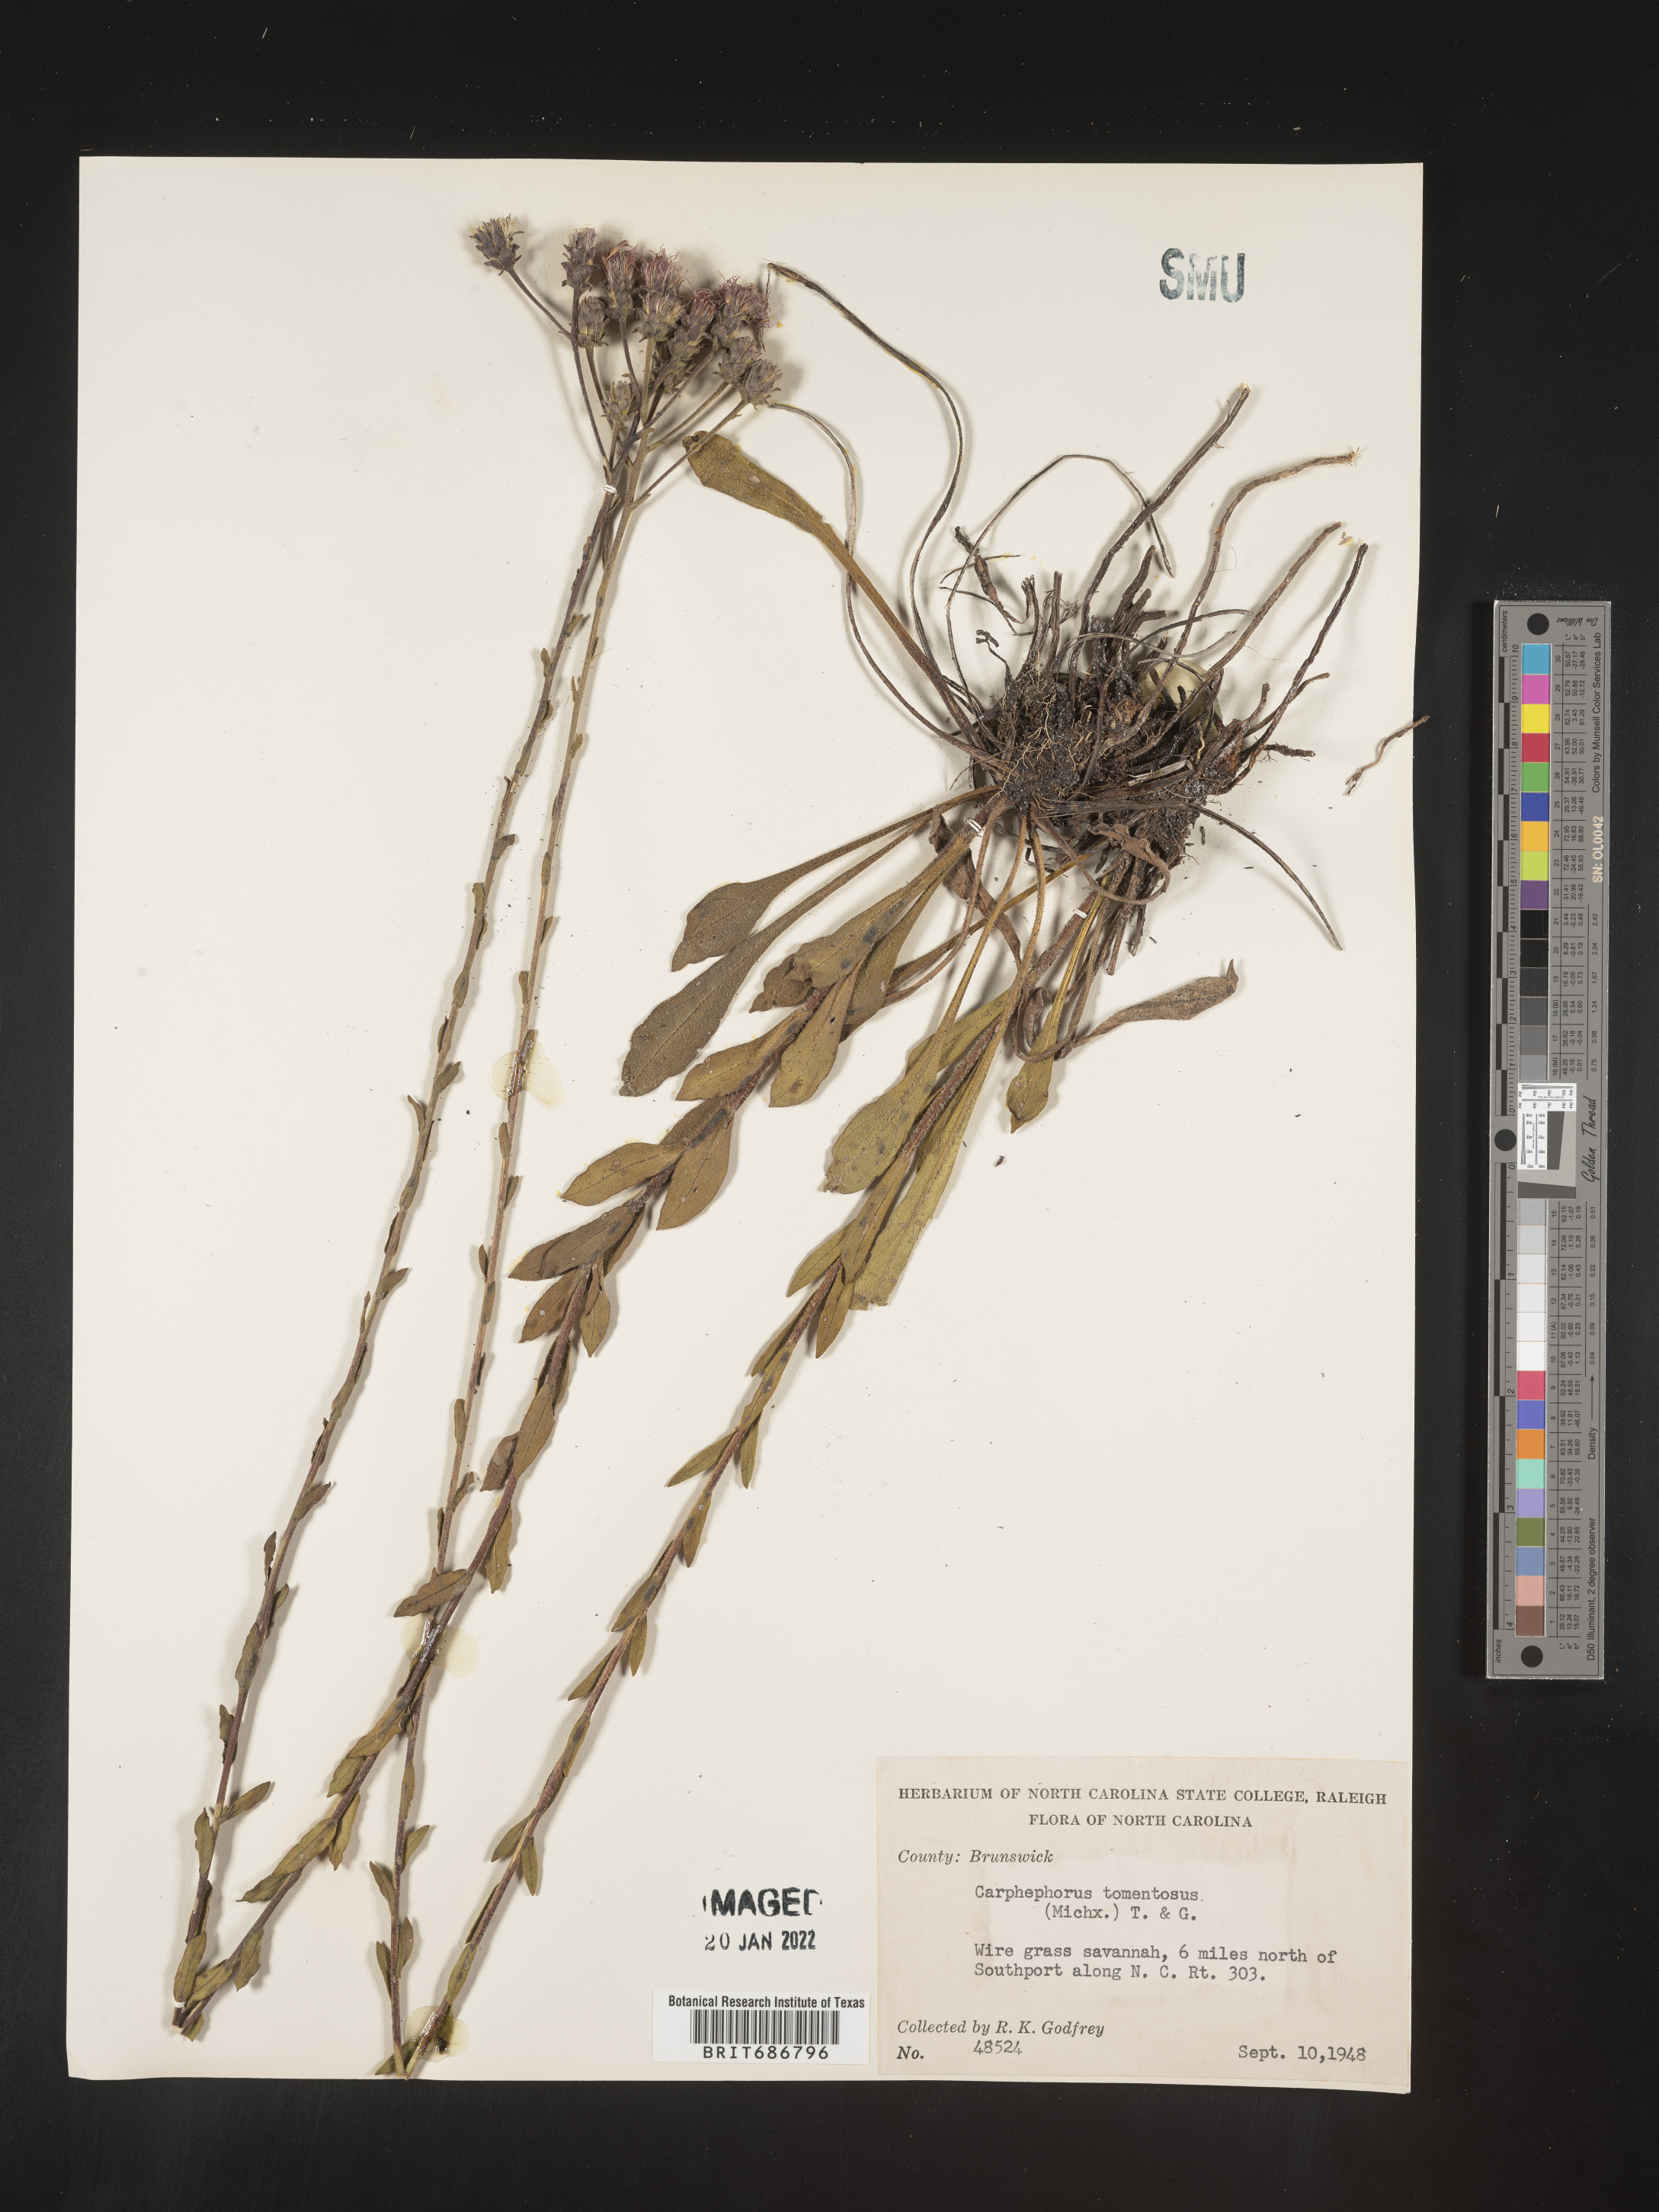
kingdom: Plantae
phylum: Tracheophyta
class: Magnoliopsida
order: Asterales
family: Asteraceae
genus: Carphephorus
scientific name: Carphephorus tomentosus
